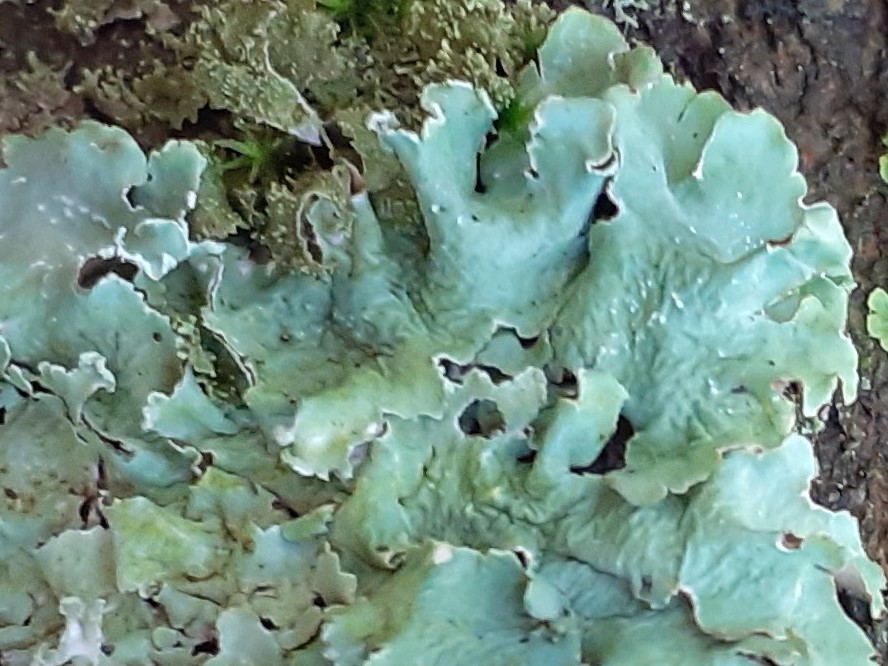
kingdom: Fungi
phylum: Ascomycota
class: Lecanoromycetes
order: Lecanorales
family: Parmeliaceae
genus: Flavoparmelia
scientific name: Flavoparmelia caperata
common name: gulgrøn skållav
